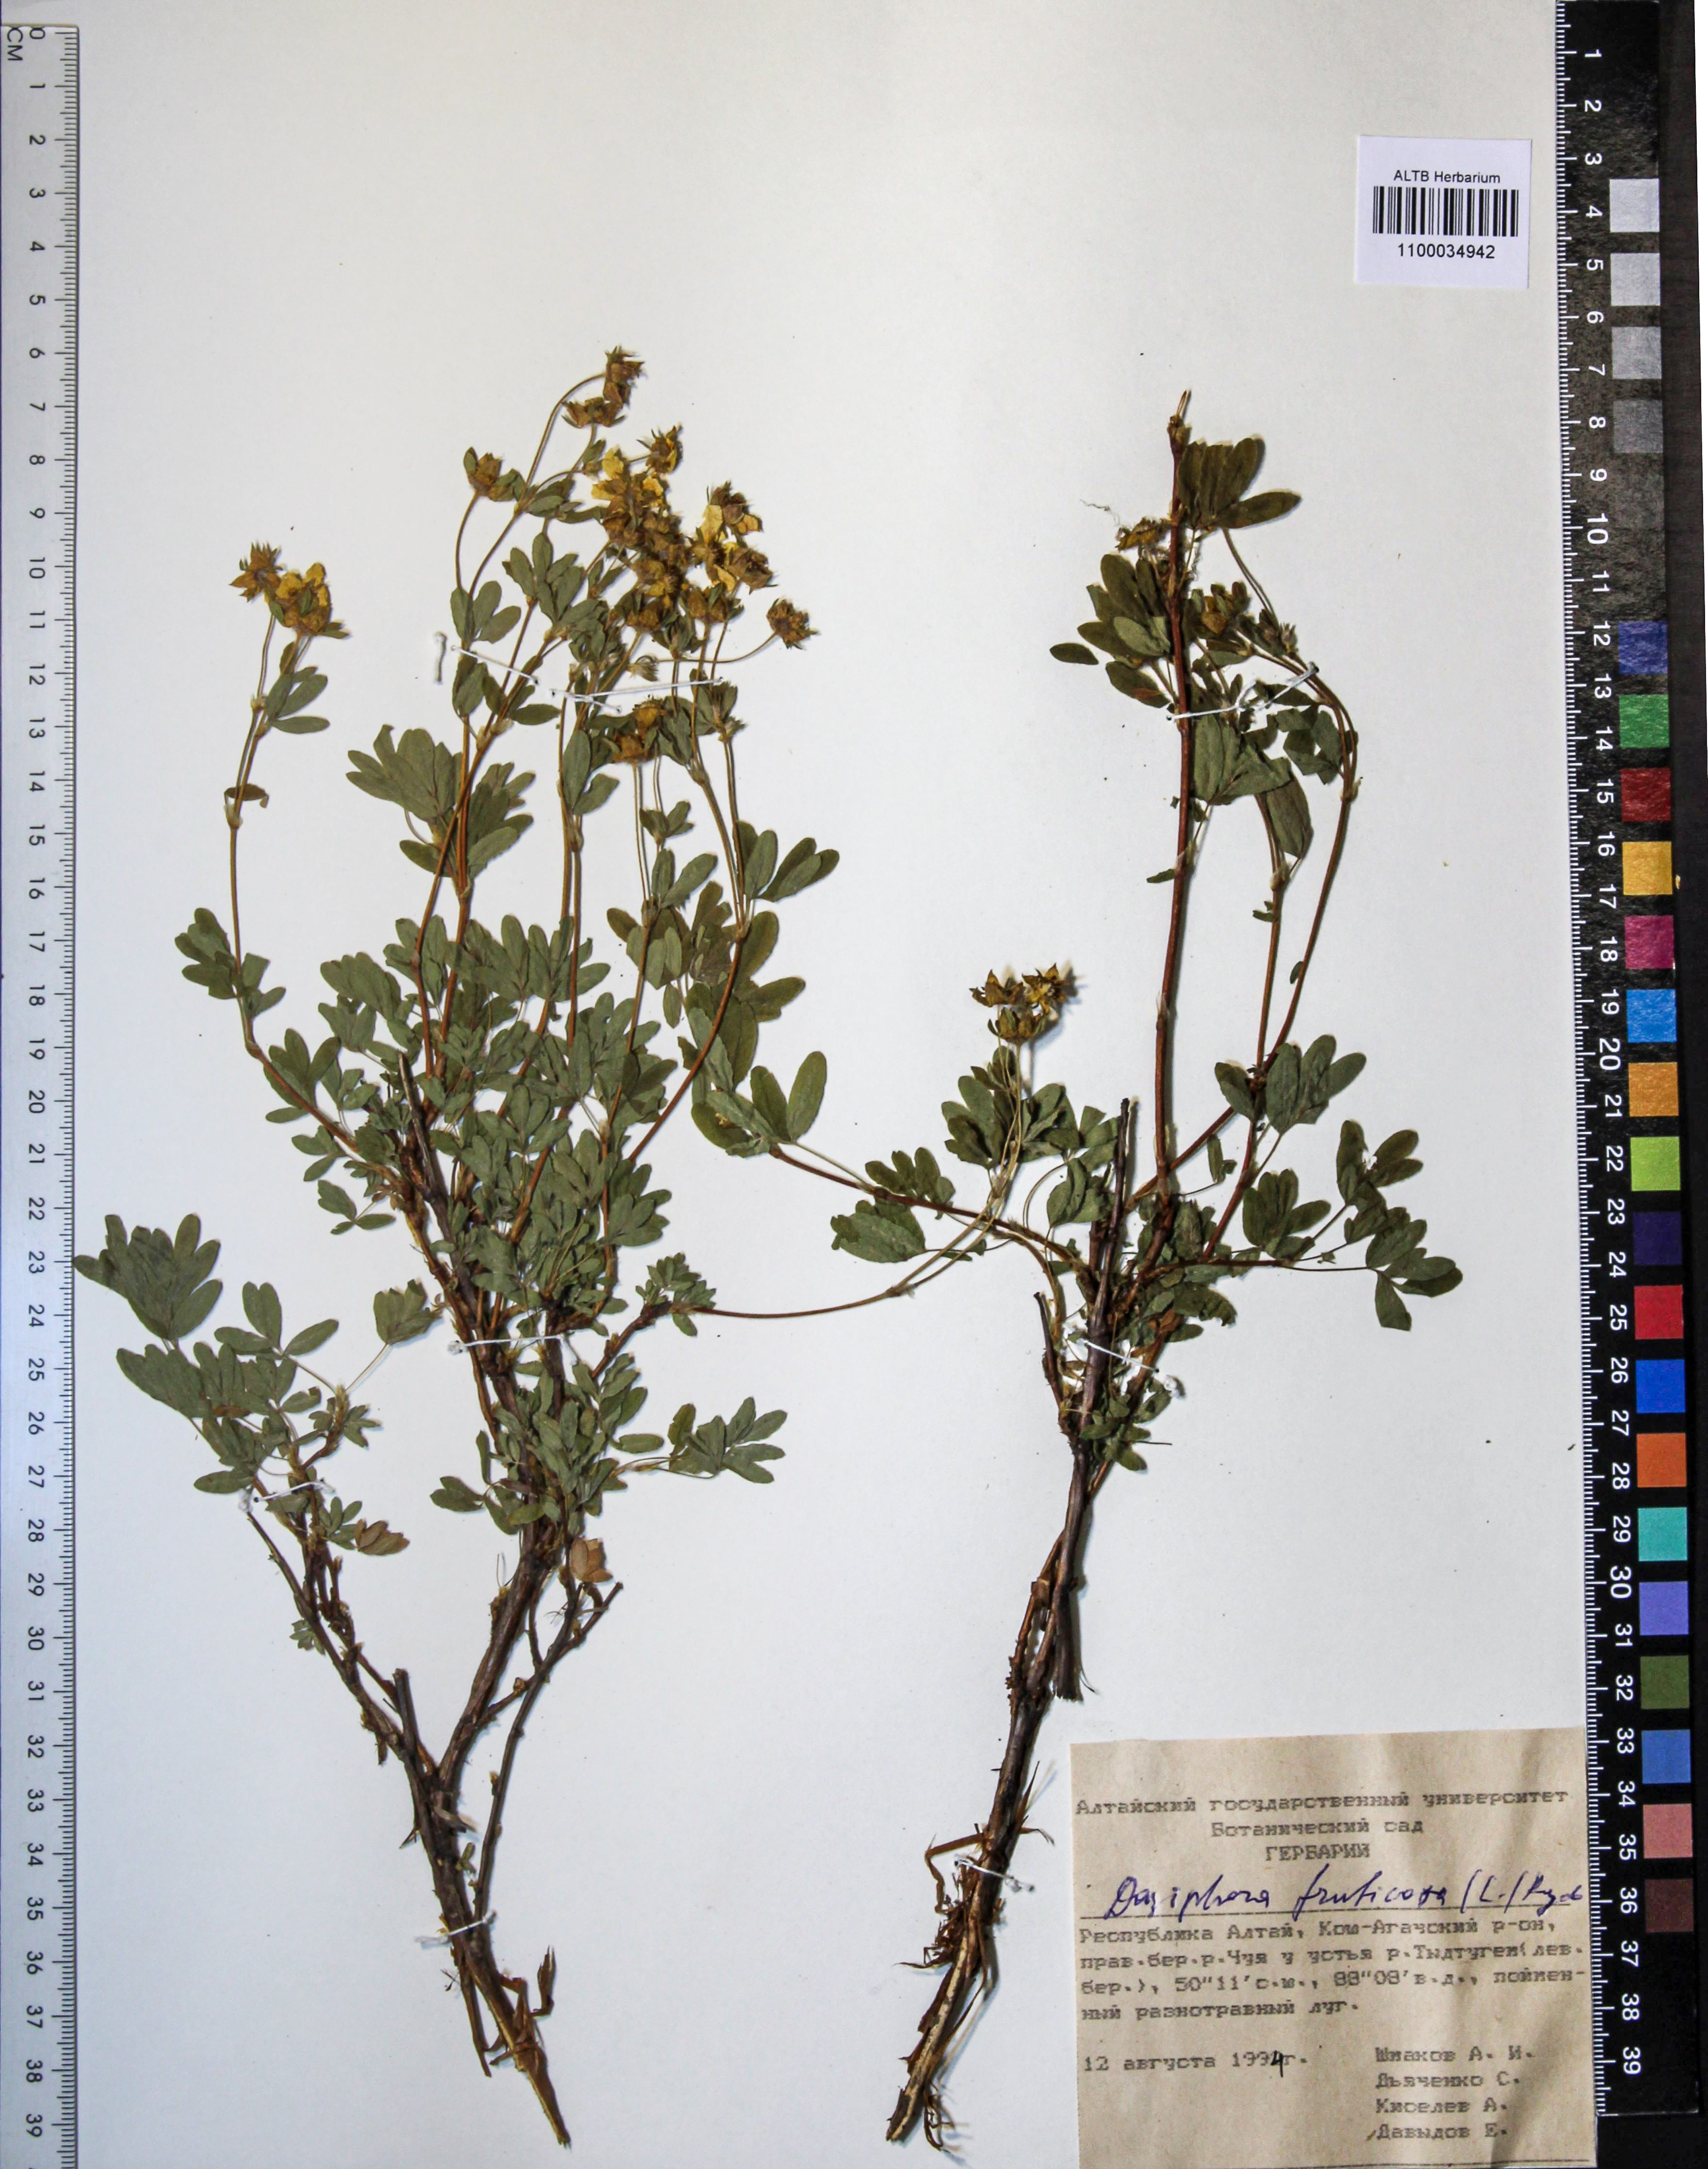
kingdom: Plantae
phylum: Tracheophyta
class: Magnoliopsida
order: Rosales
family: Rosaceae
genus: Dasiphora
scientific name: Dasiphora fruticosa
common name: Shrubby cinquefoil
